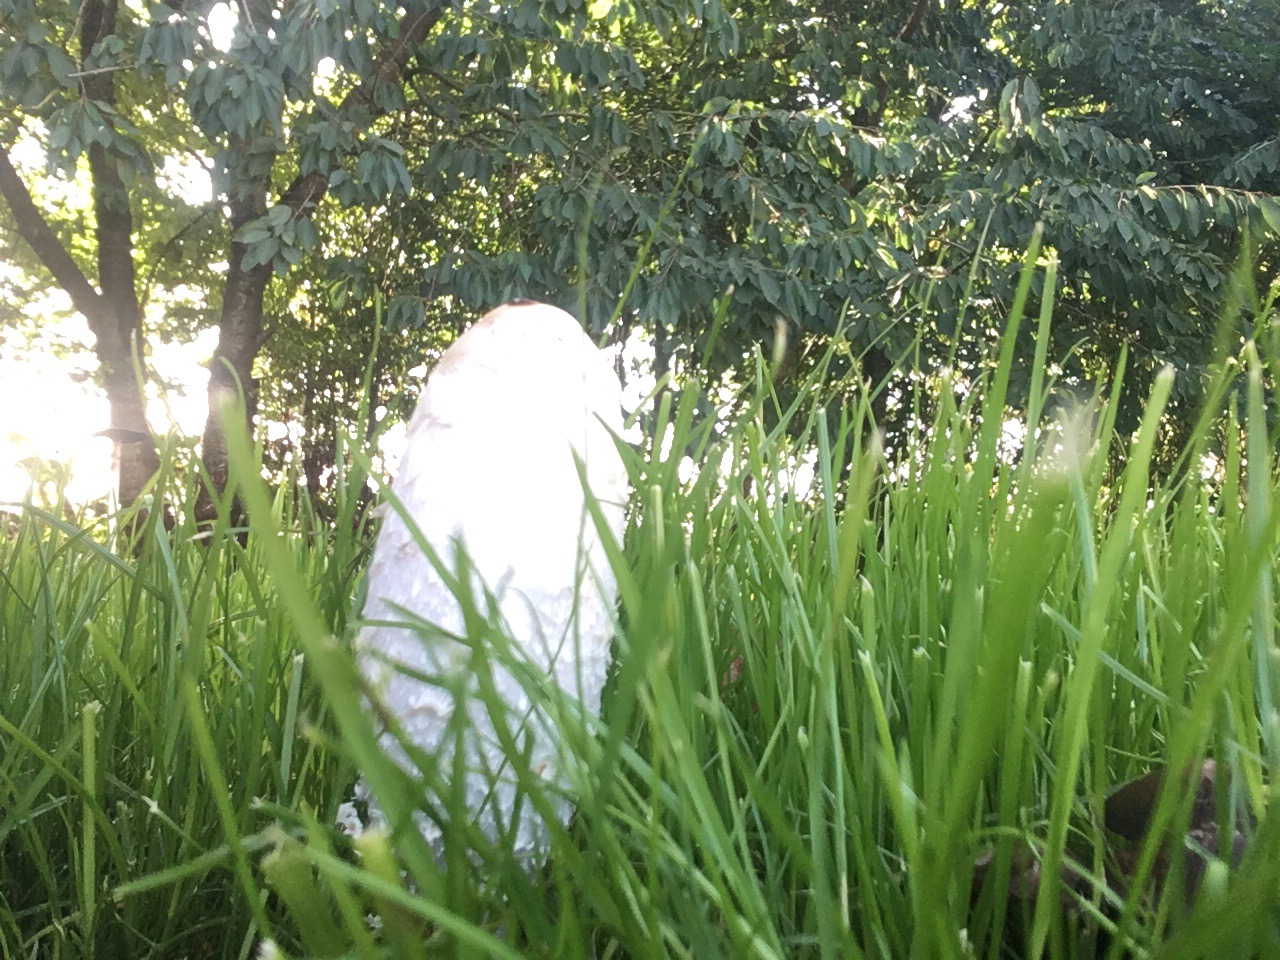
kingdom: Fungi
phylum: Basidiomycota
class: Agaricomycetes
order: Agaricales
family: Agaricaceae
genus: Coprinus
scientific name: Coprinus comatus
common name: stor parykhat
